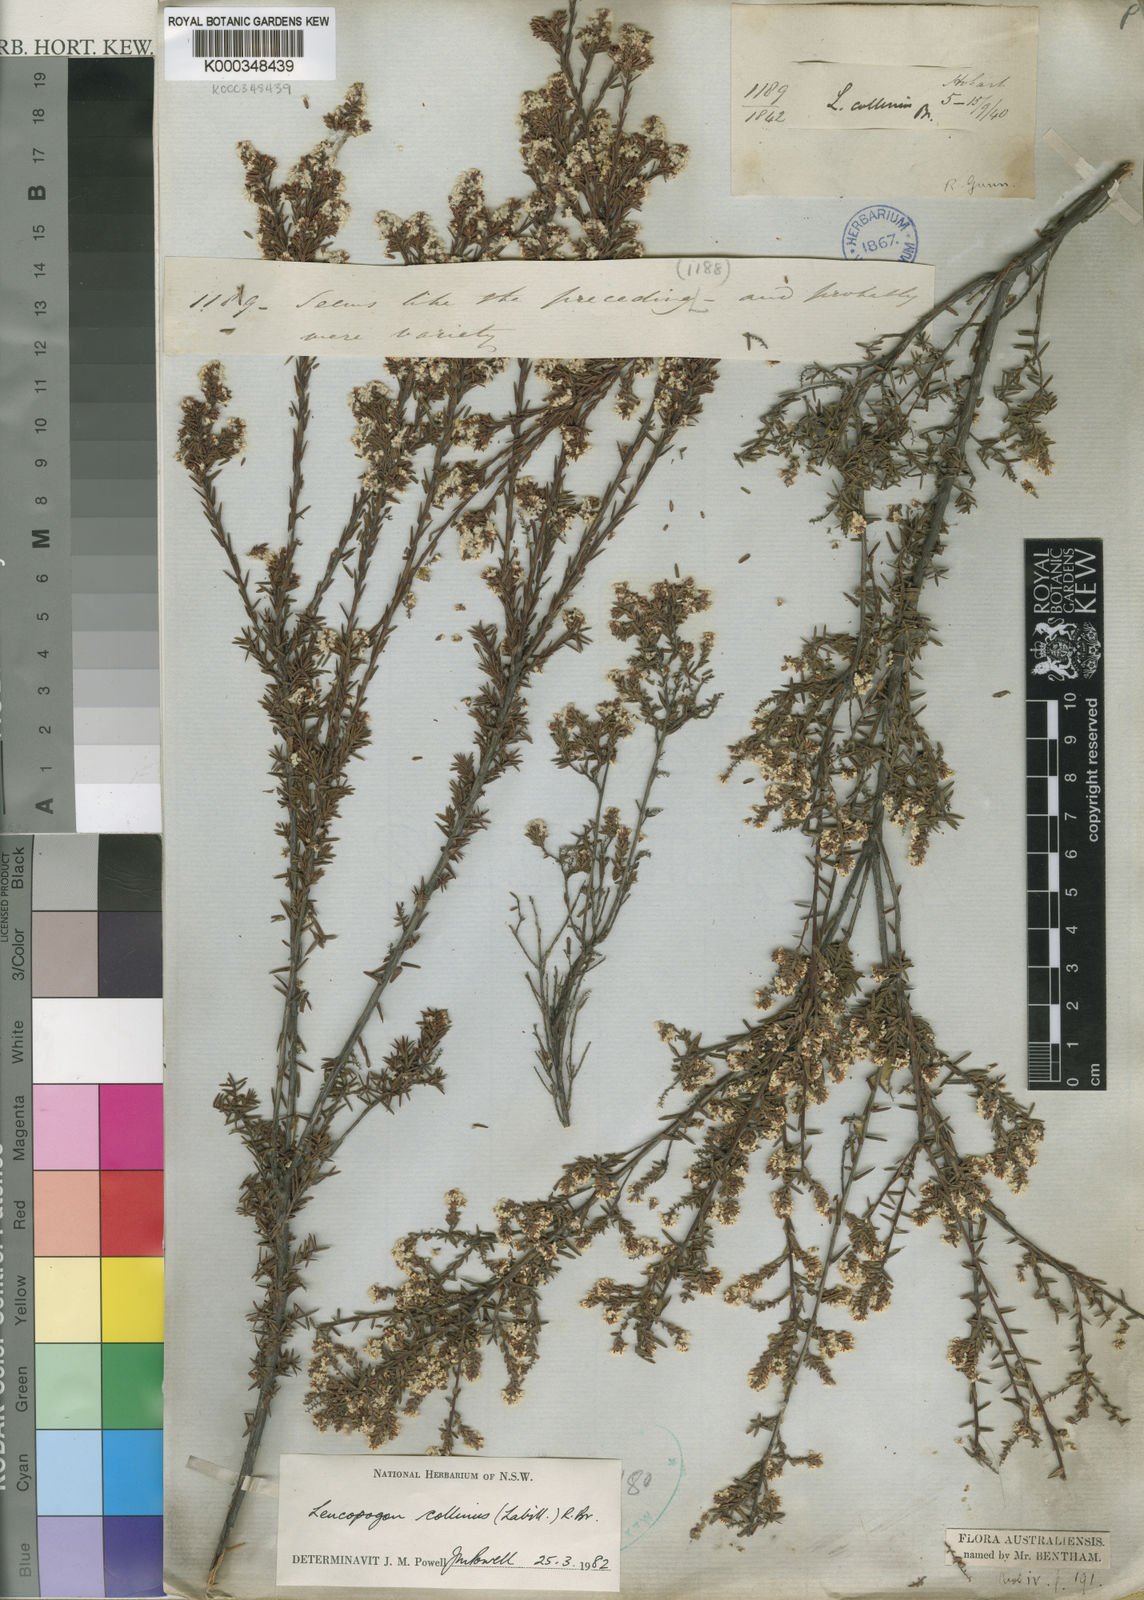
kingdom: Plantae
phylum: Tracheophyta
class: Magnoliopsida
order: Ericales
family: Ericaceae
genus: Leucopogon
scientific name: Leucopogon collinus
